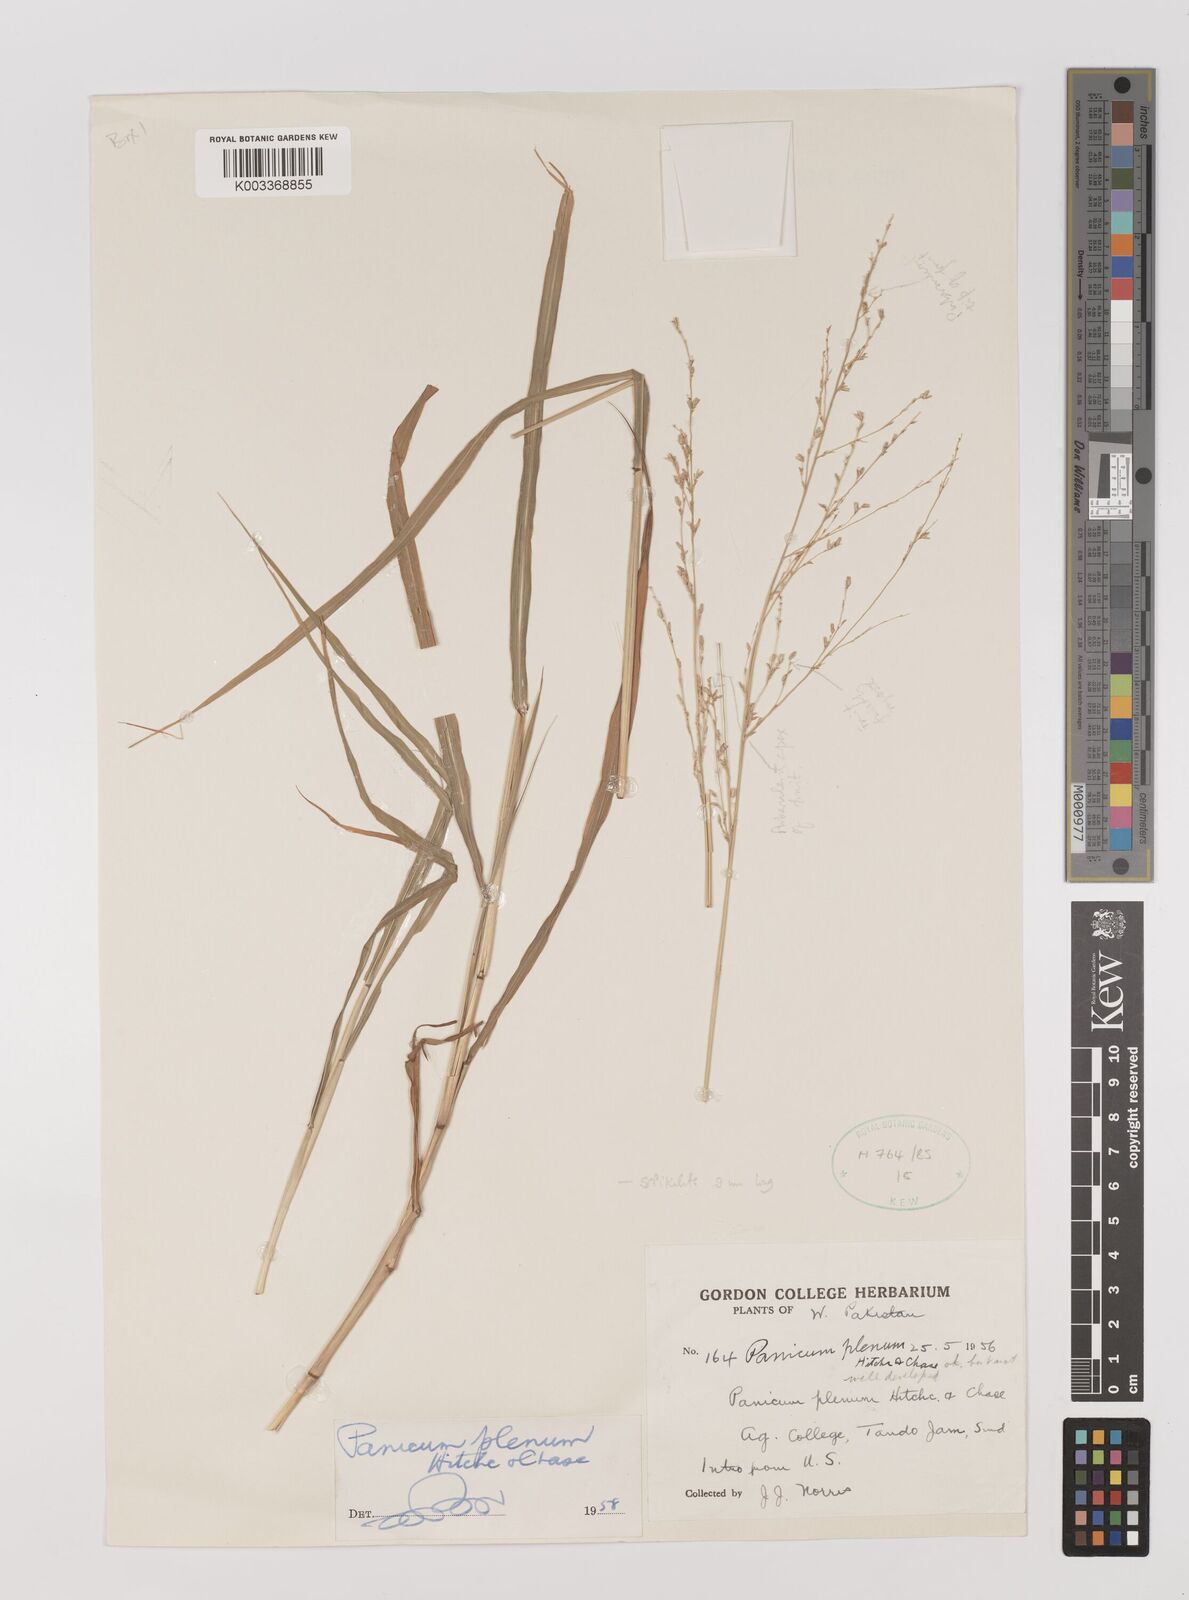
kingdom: Plantae
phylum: Tracheophyta
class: Liliopsida
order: Poales
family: Poaceae
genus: Zuloagaea
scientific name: Zuloagaea bulbosa
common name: Canyon panic grass
